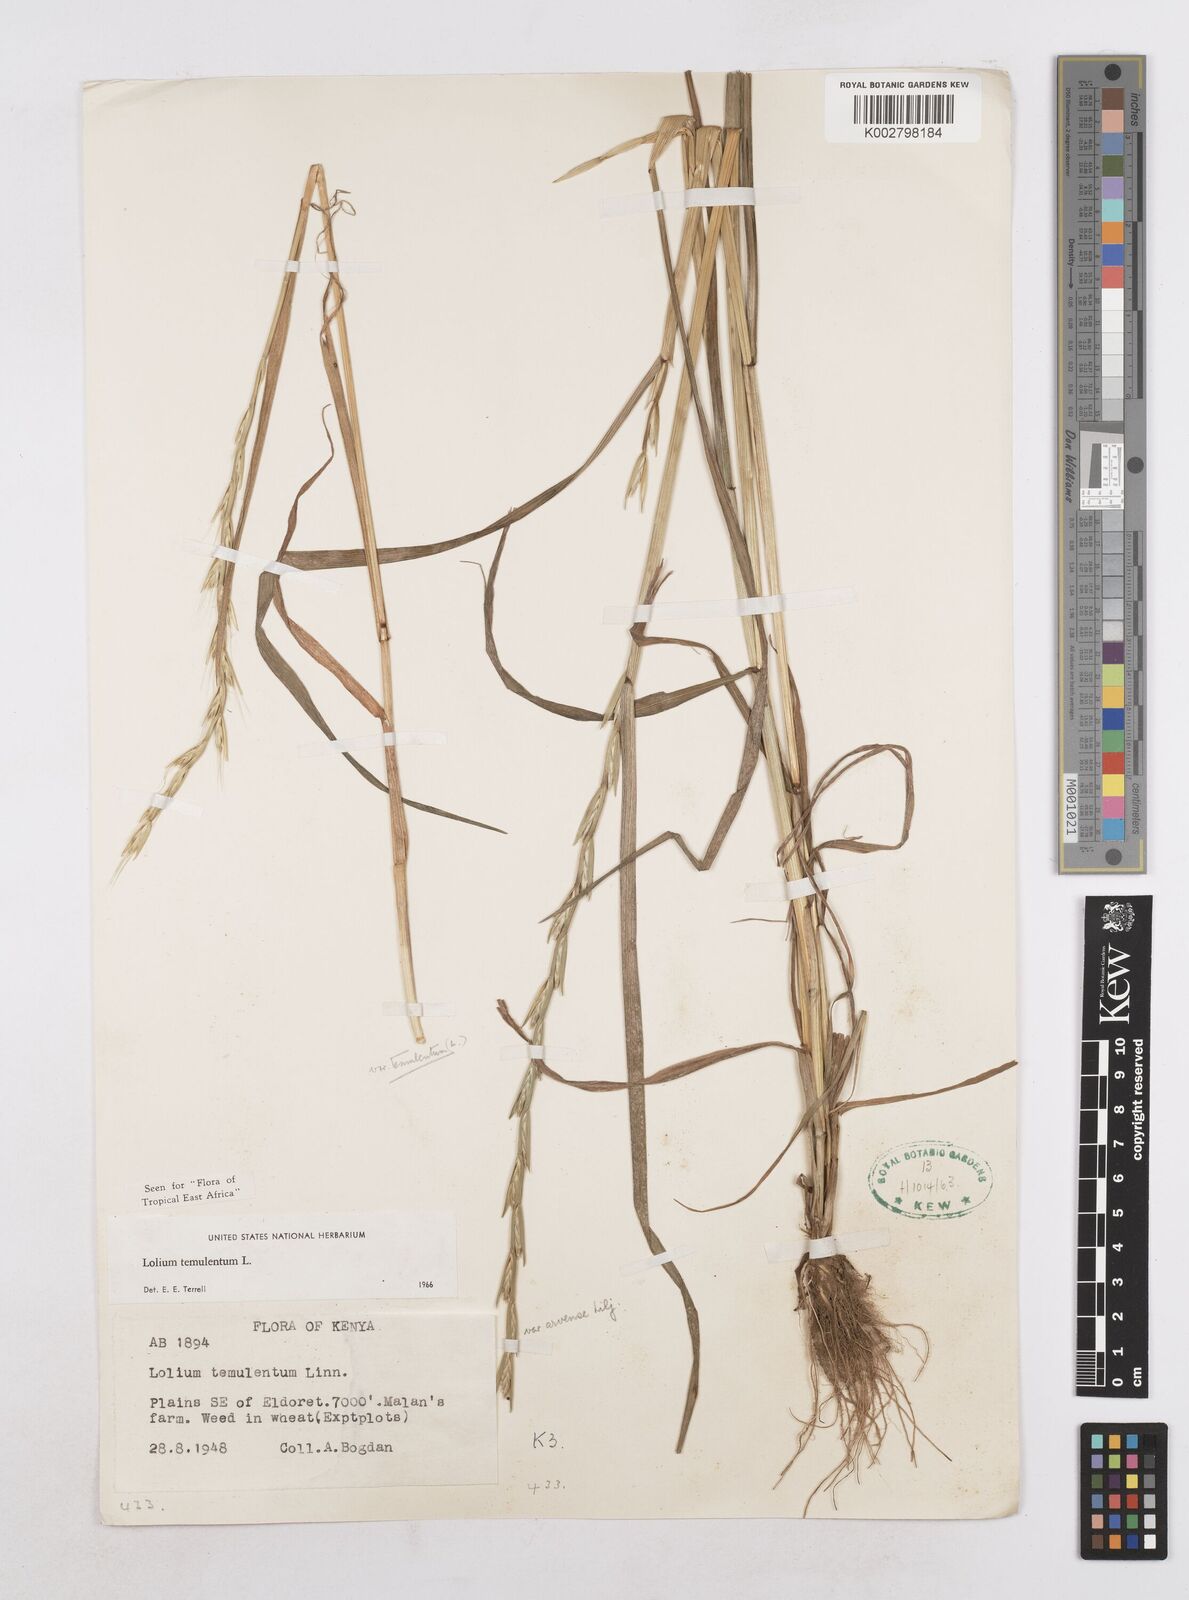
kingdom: Plantae
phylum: Tracheophyta
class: Liliopsida
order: Poales
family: Poaceae
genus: Lolium
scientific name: Lolium temulentum
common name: Darnel
